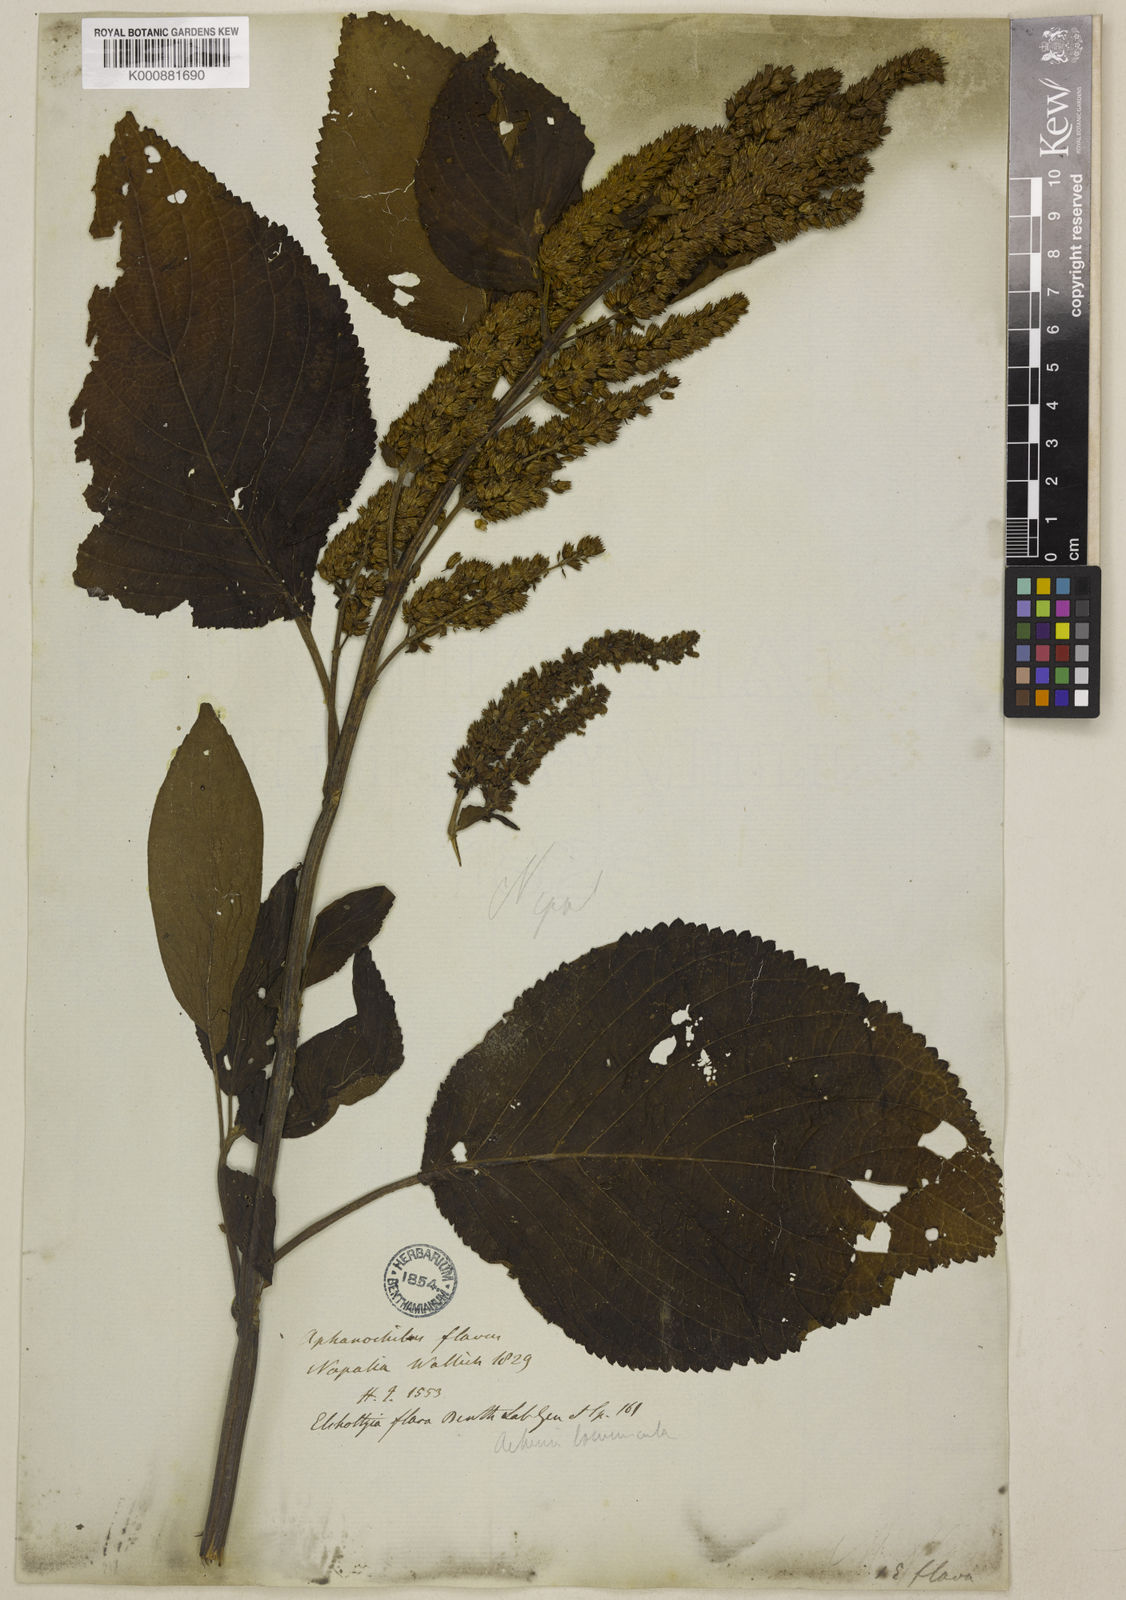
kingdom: Plantae
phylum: Tracheophyta
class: Magnoliopsida
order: Lamiales
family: Lamiaceae
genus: Elsholtzia
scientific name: Elsholtzia flava
